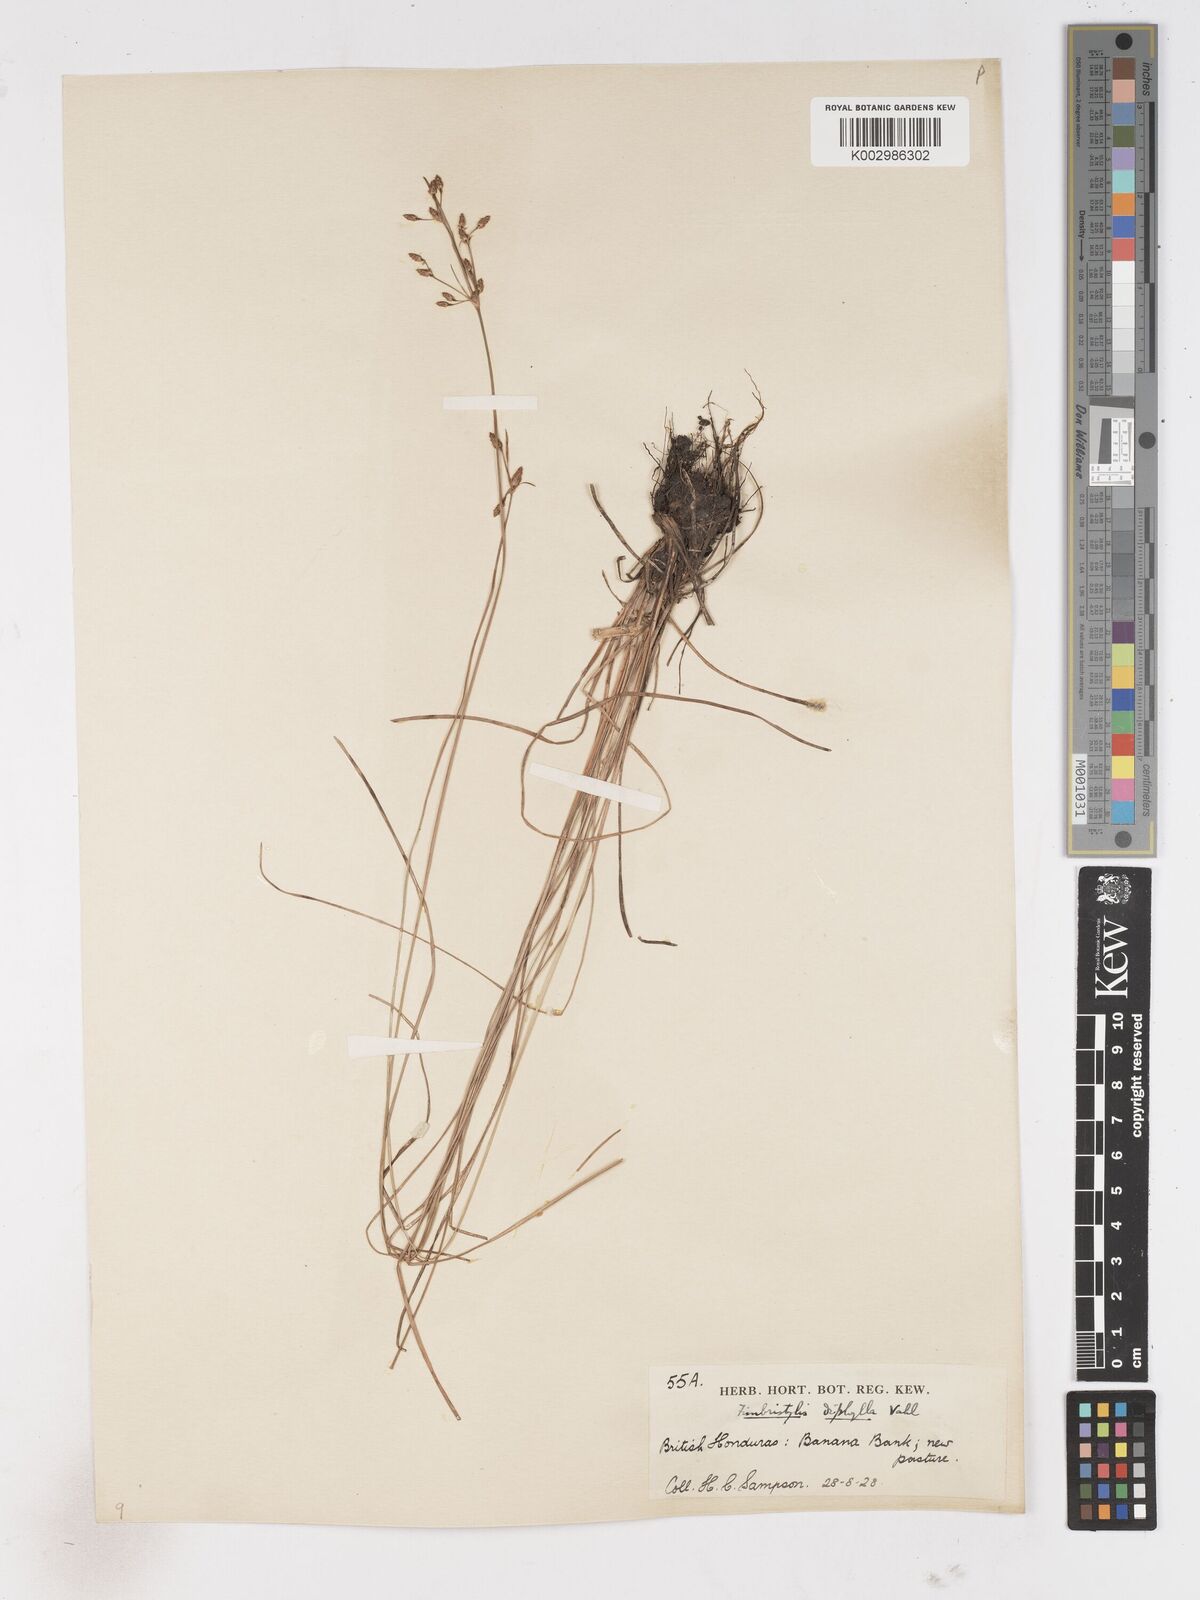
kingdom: Plantae
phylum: Tracheophyta
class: Liliopsida
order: Poales
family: Cyperaceae
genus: Fimbristylis
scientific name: Fimbristylis dichotoma
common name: Forked fimbry
